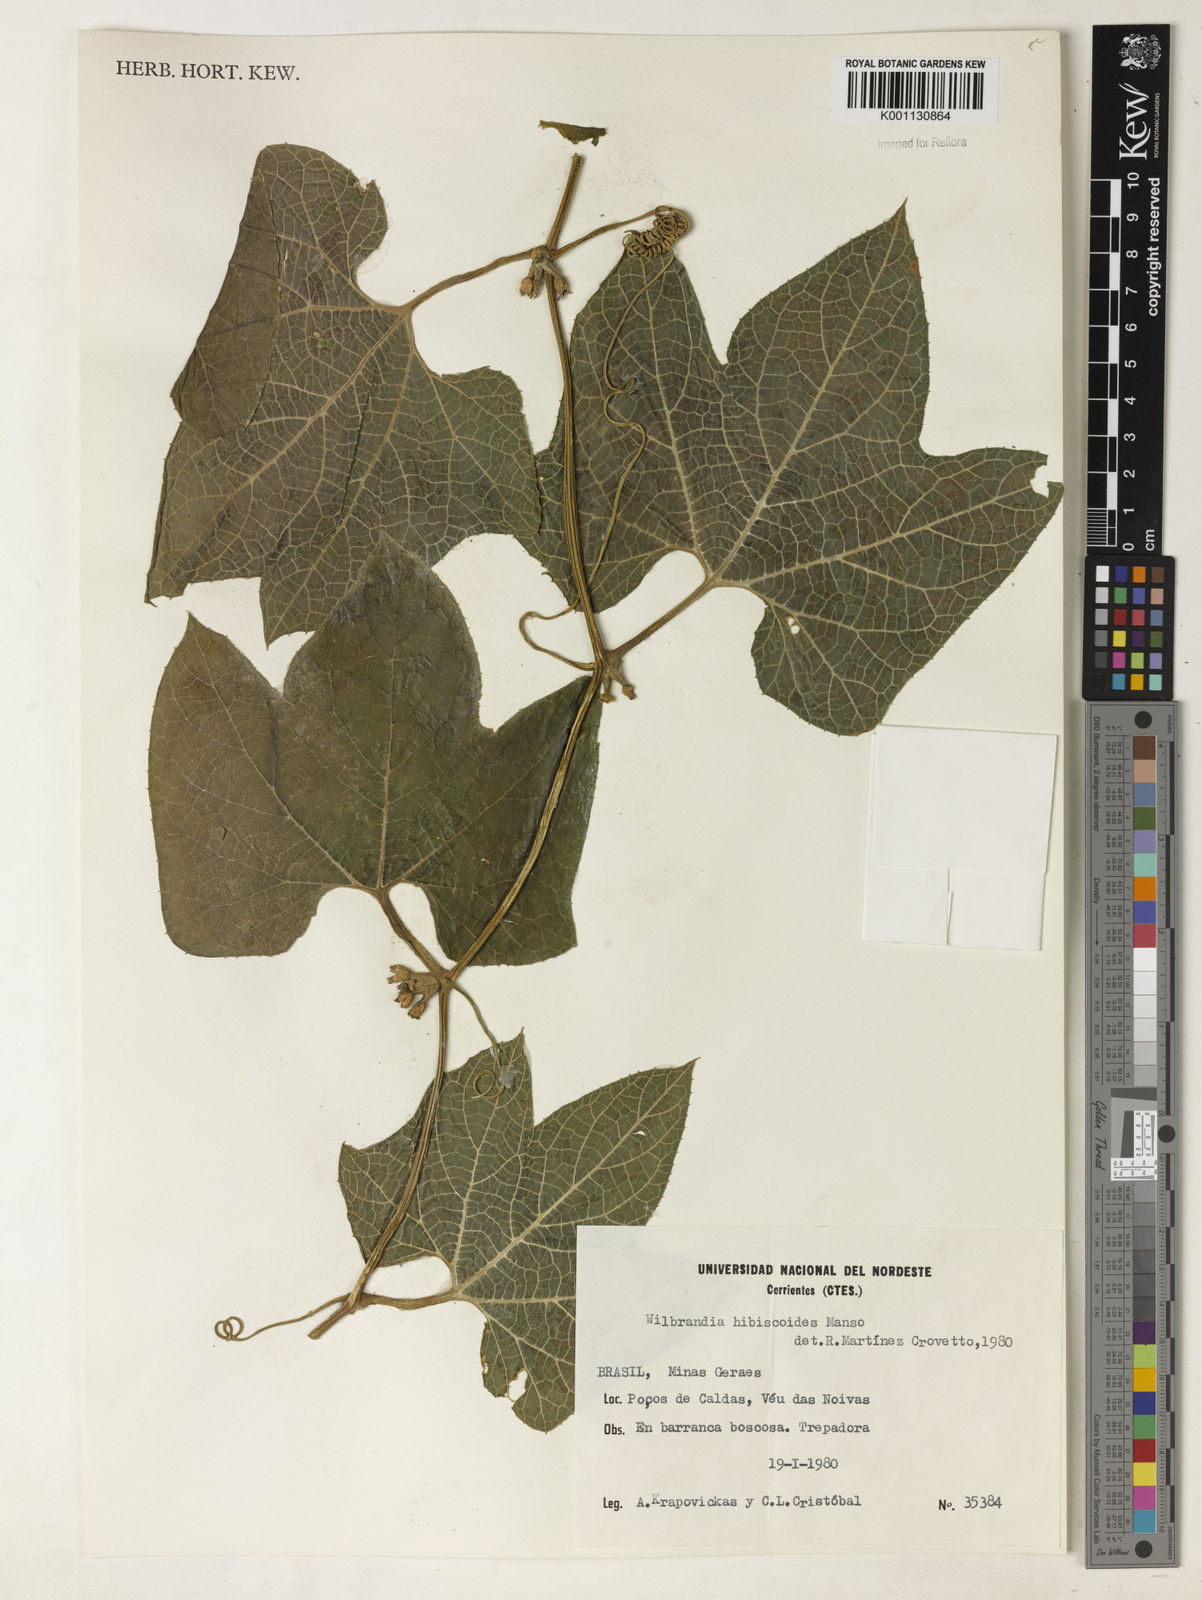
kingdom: Plantae
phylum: Tracheophyta
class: Magnoliopsida
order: Cucurbitales
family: Cucurbitaceae
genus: Wilbrandia
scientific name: Wilbrandia hibiscoides
